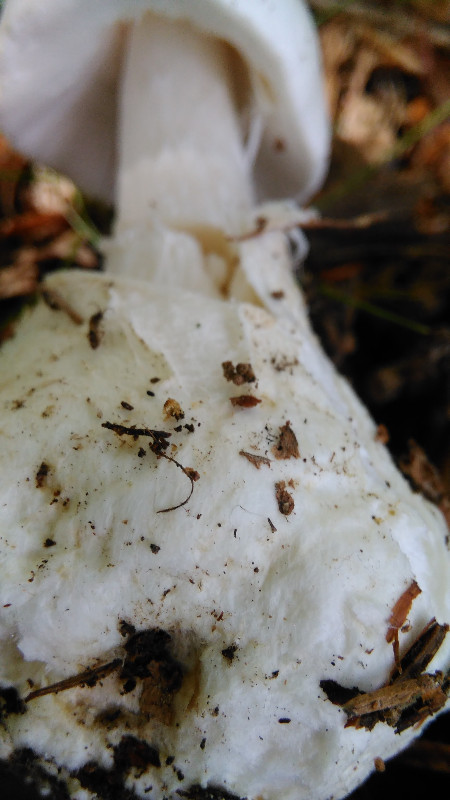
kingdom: Fungi
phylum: Basidiomycota
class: Agaricomycetes
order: Agaricales
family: Amanitaceae
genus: Amanita
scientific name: Amanita virosa
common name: snehvid fluesvamp
